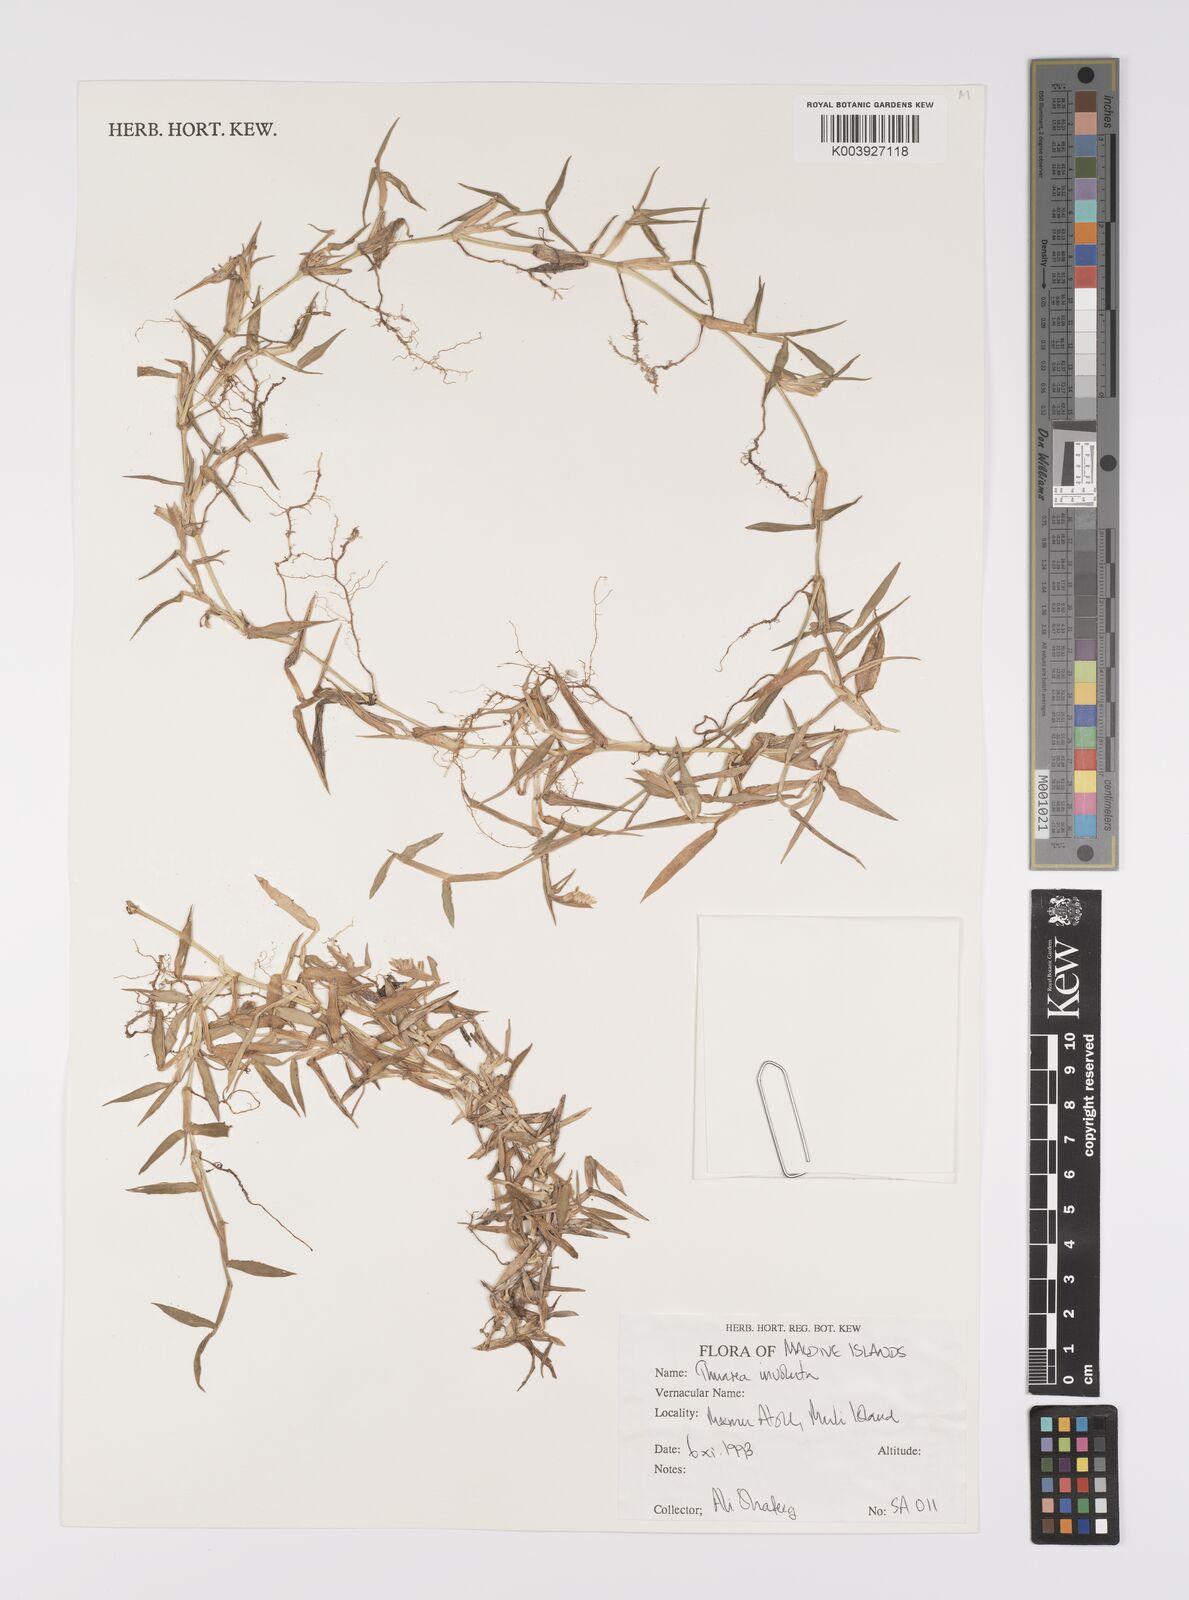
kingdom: Plantae
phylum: Tracheophyta
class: Liliopsida
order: Poales
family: Poaceae
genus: Thuarea
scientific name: Thuarea involuta
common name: Tropical beach grass
